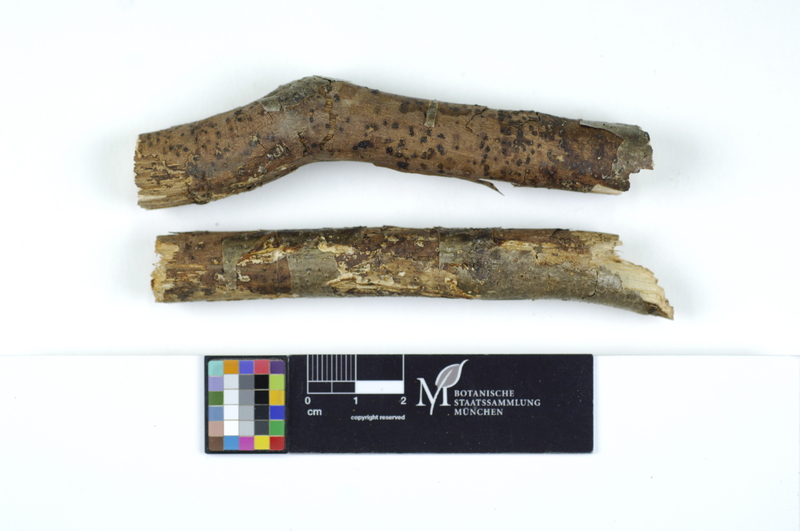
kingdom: Fungi
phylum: Basidiomycota
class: Agaricomycetes
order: Polyporales
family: Steccherinaceae
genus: Antrodiella
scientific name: Antrodiella onychoides
